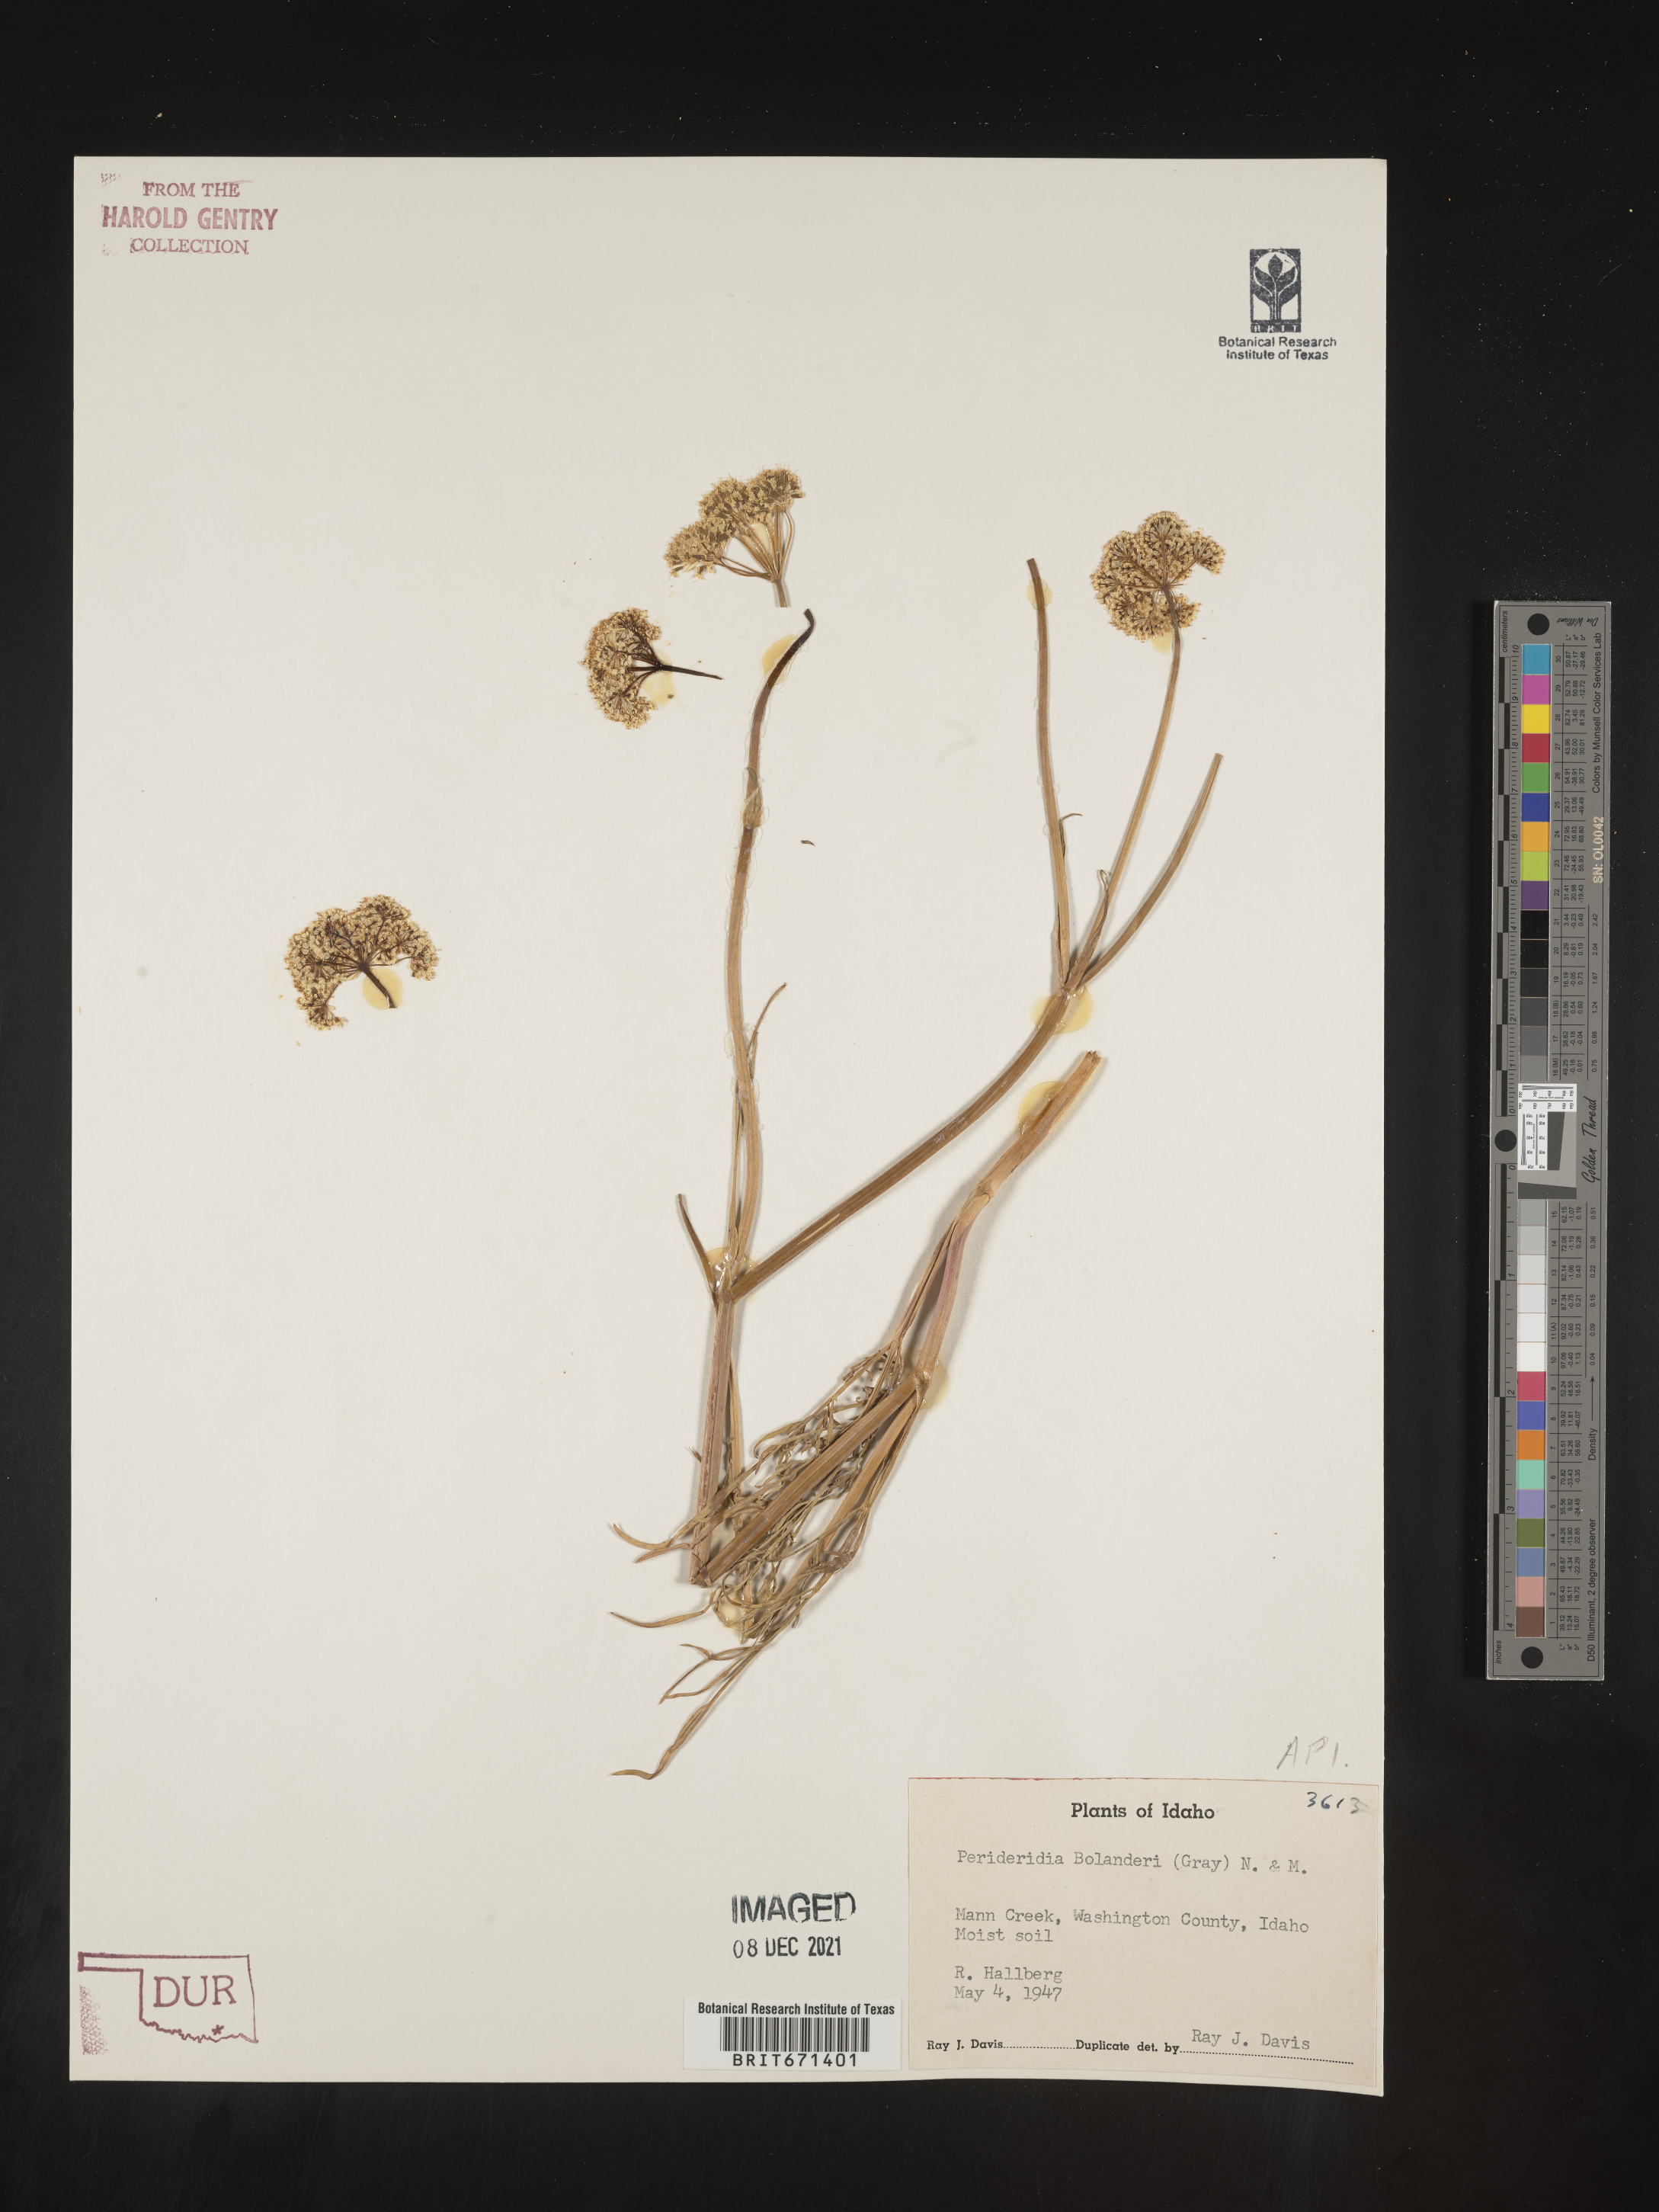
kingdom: Plantae
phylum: Tracheophyta
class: Magnoliopsida
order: Apiales
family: Apiaceae
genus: Perideridia
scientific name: Perideridia bolanderi
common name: Olasi
